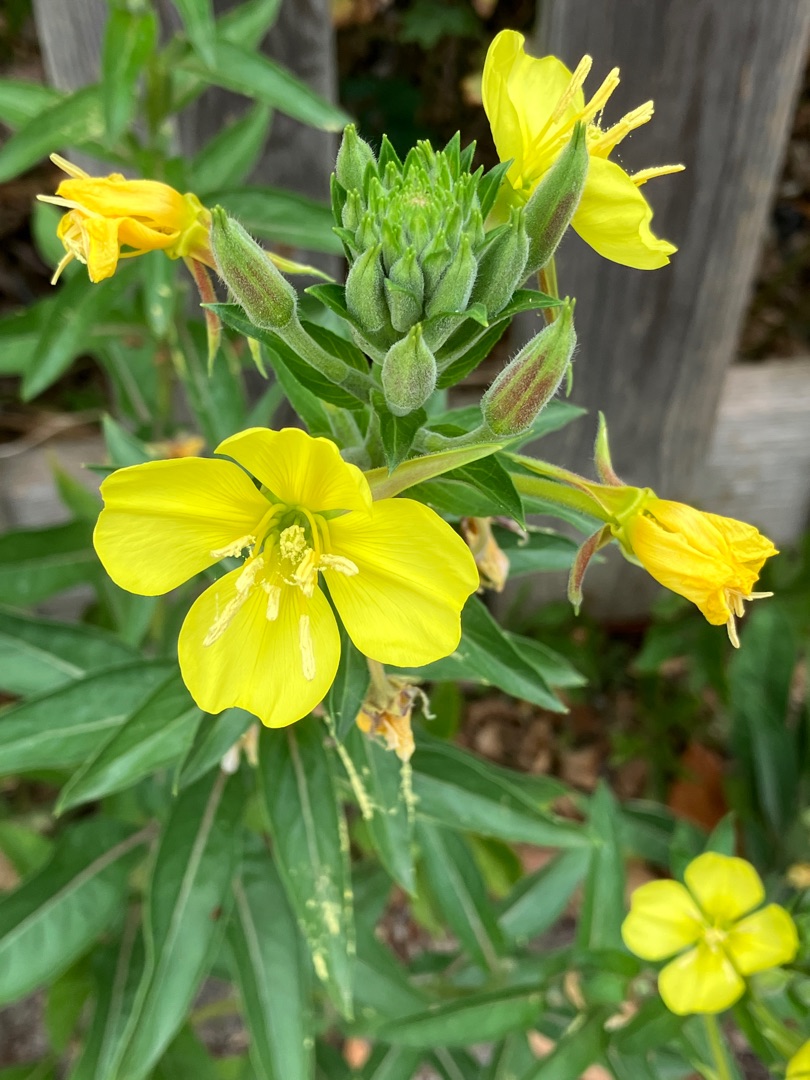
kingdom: Plantae
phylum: Tracheophyta
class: Magnoliopsida
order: Myrtales
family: Onagraceae
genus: Oenothera
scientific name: Oenothera fallax
